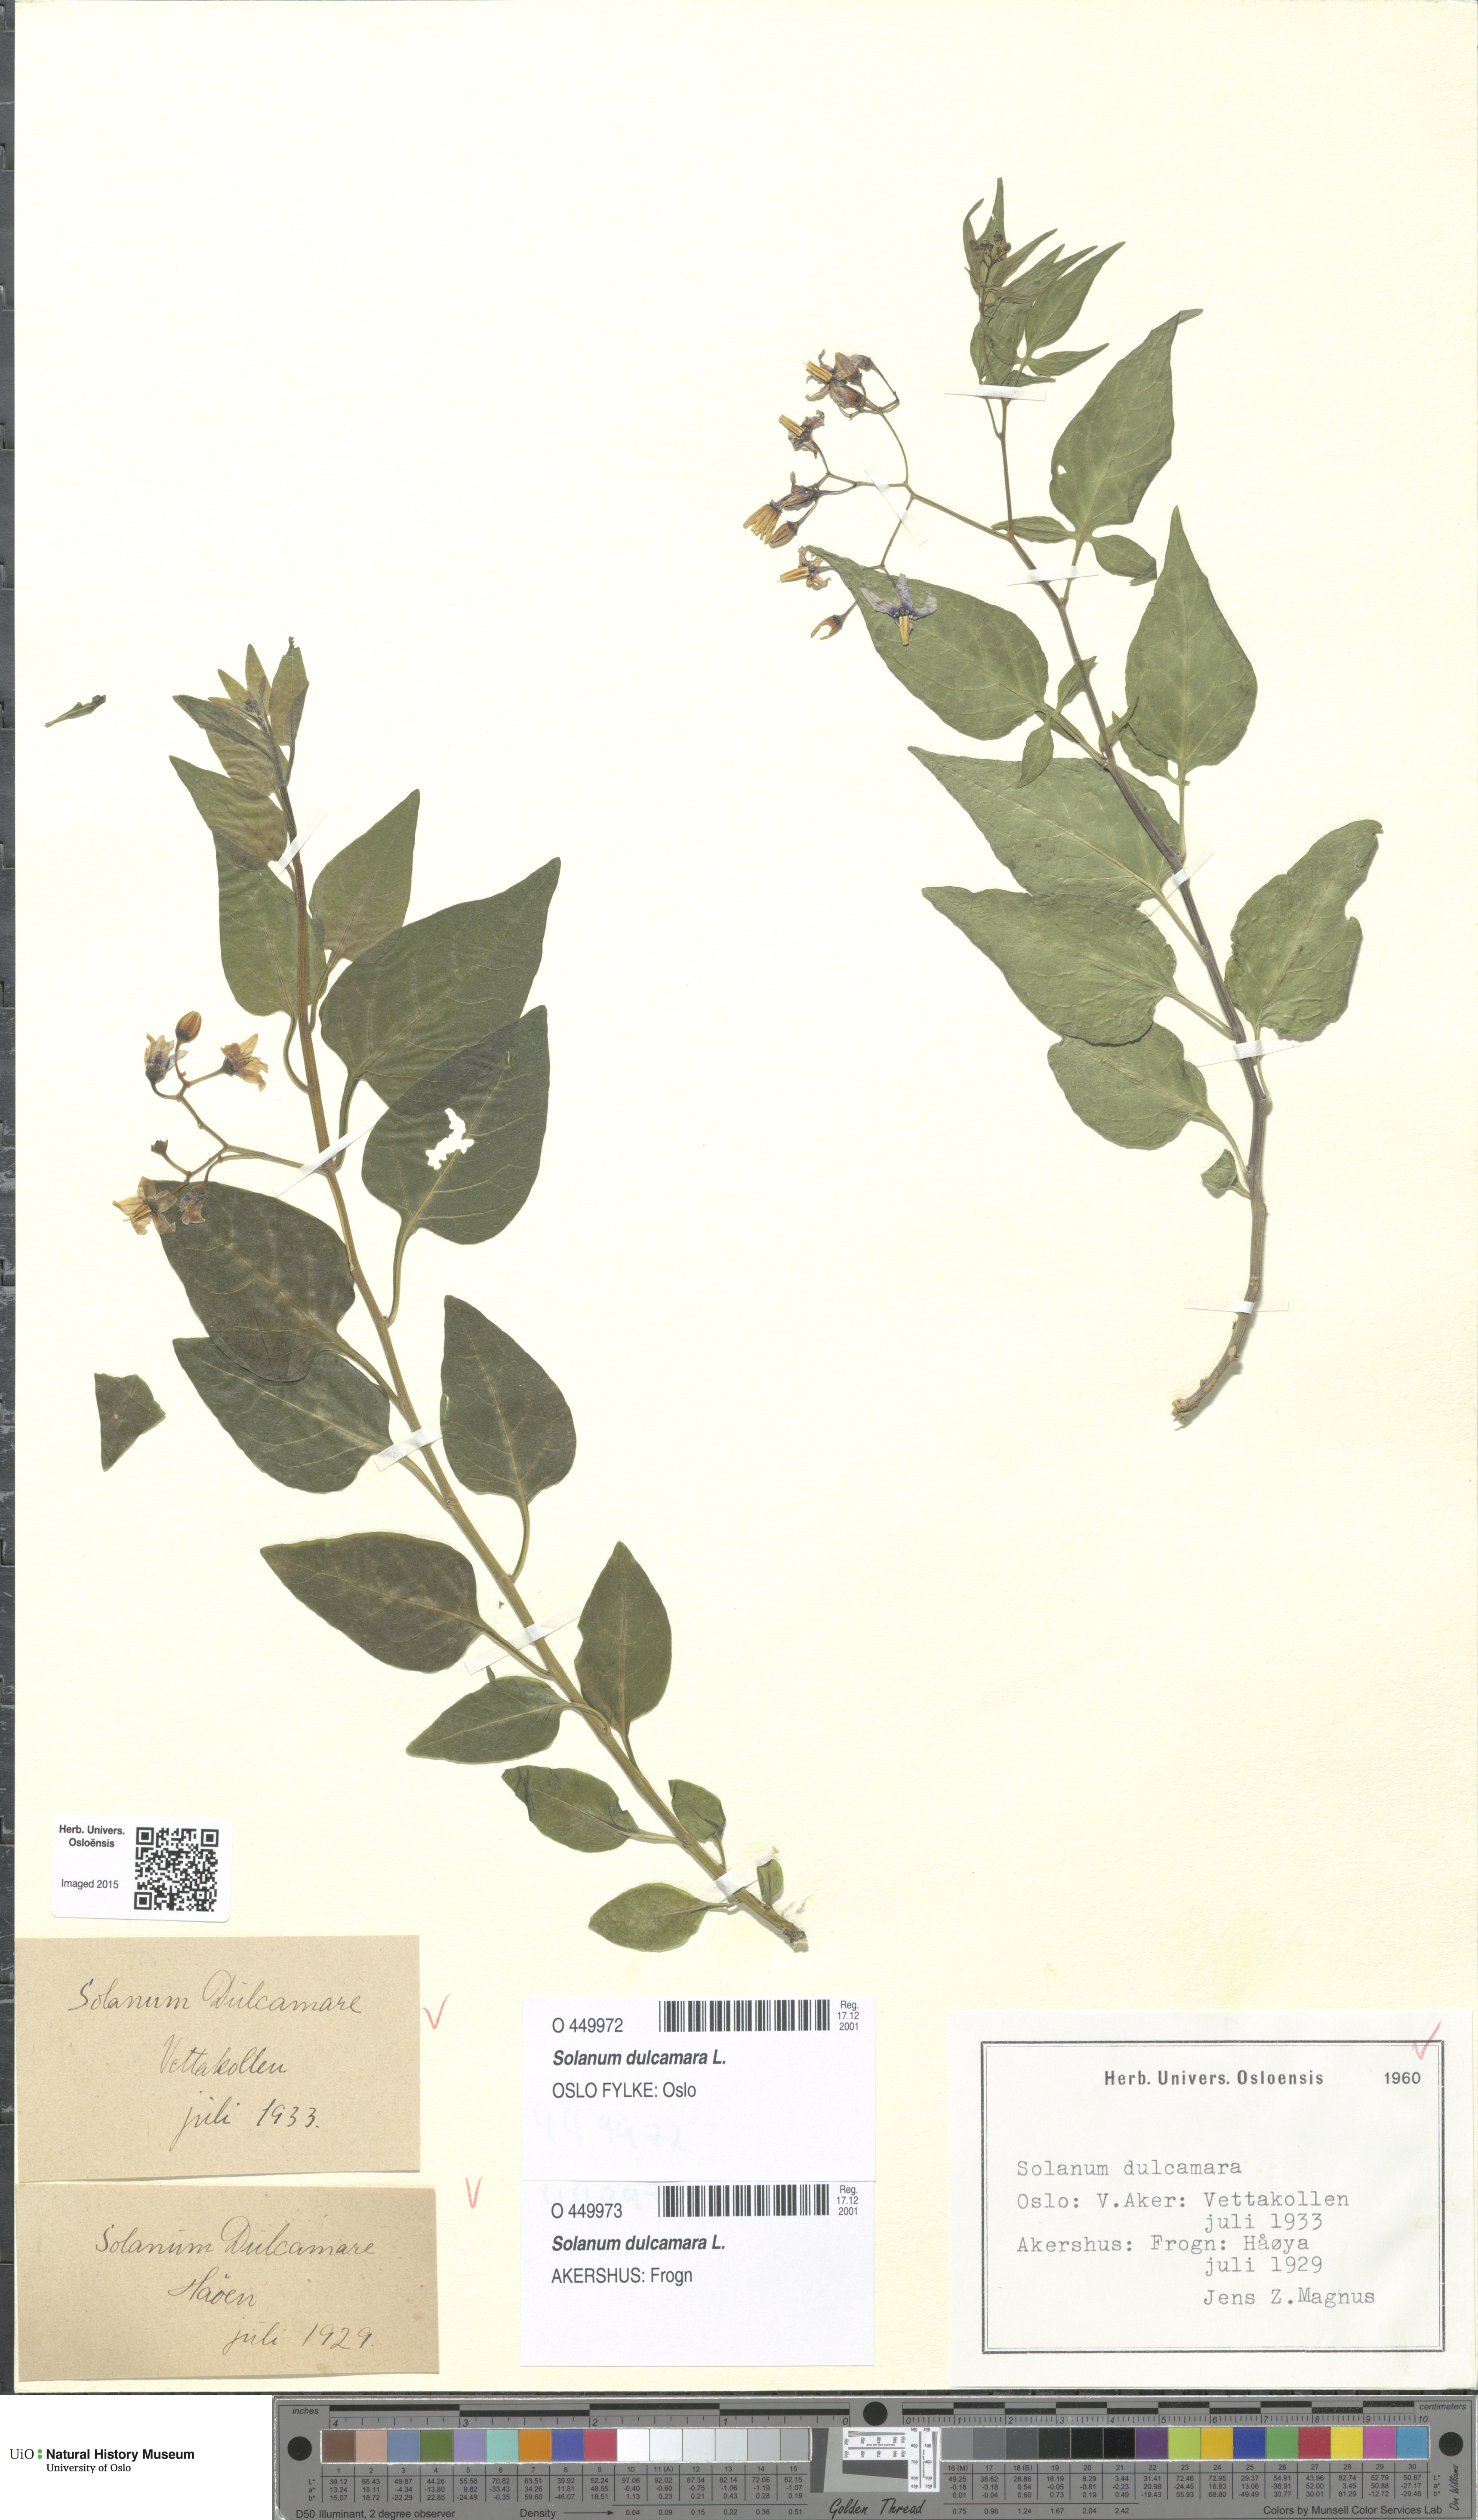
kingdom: Plantae
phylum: Tracheophyta
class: Magnoliopsida
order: Solanales
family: Solanaceae
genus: Solanum
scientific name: Solanum dulcamara
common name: Climbing nightshade
